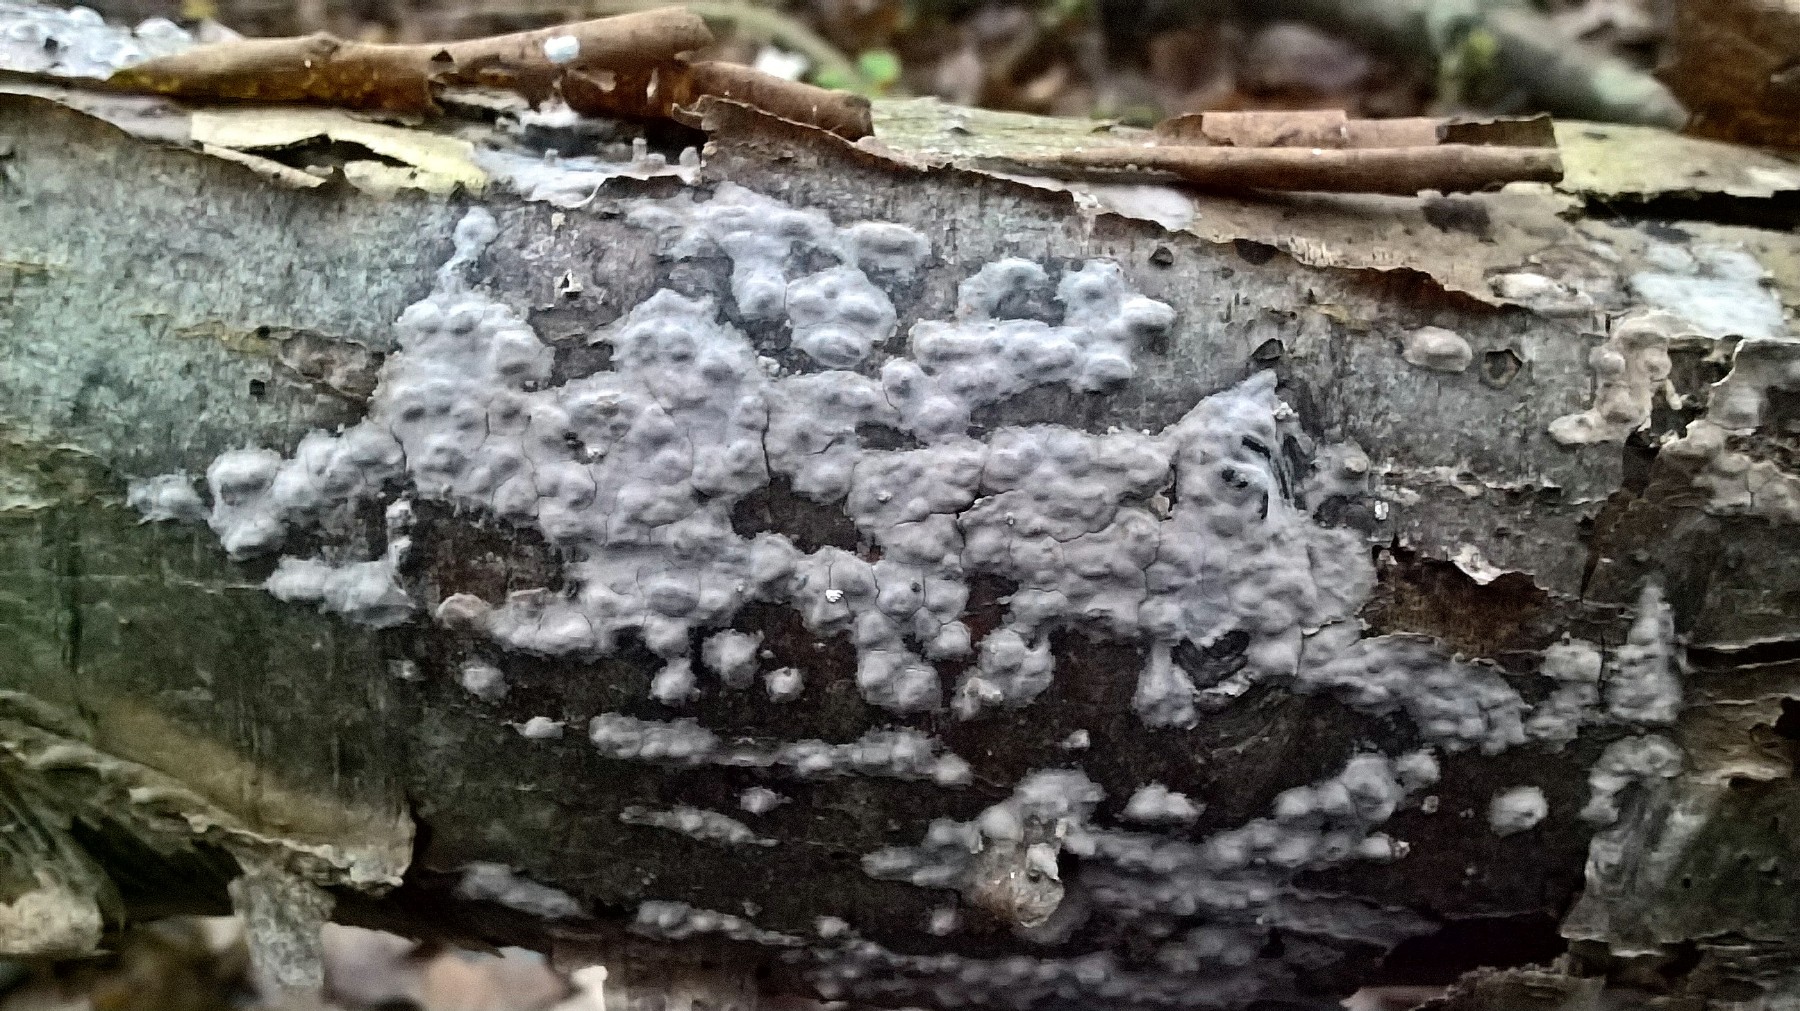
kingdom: Fungi
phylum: Basidiomycota
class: Agaricomycetes
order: Russulales
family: Peniophoraceae
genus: Peniophora
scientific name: Peniophora
